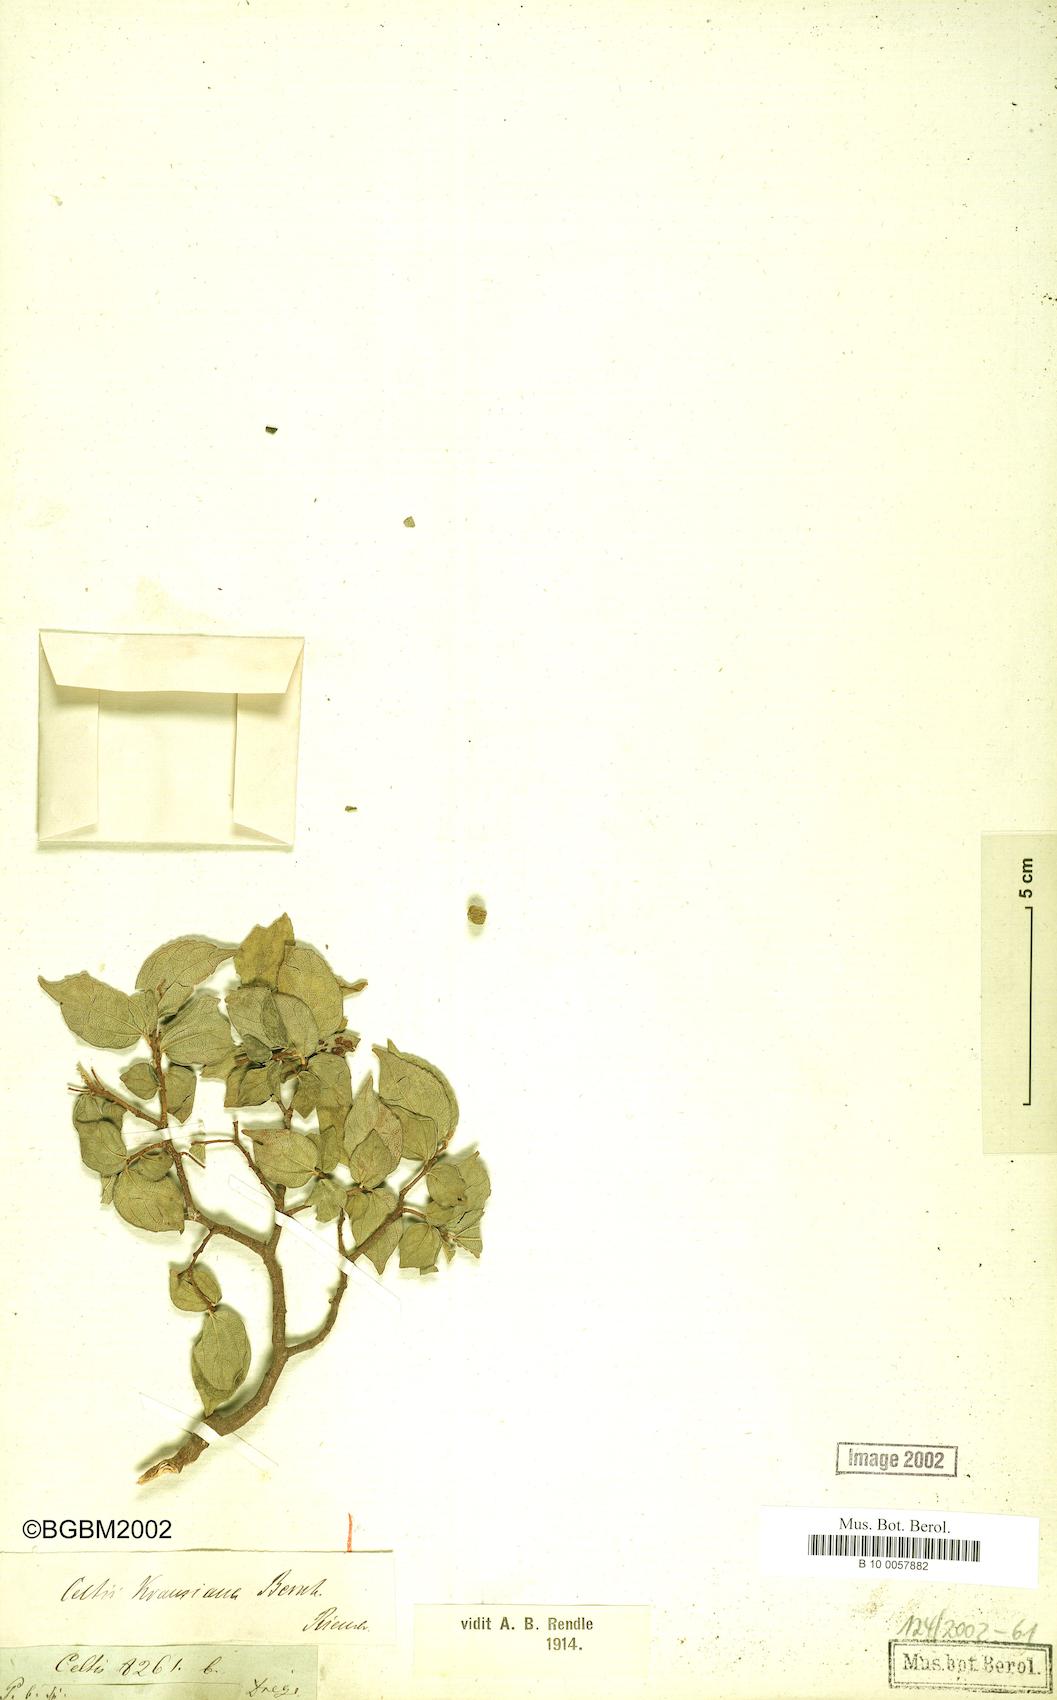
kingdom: Plantae
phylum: Tracheophyta
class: Magnoliopsida
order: Rosales
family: Cannabaceae
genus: Celtis
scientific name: Celtis africana
